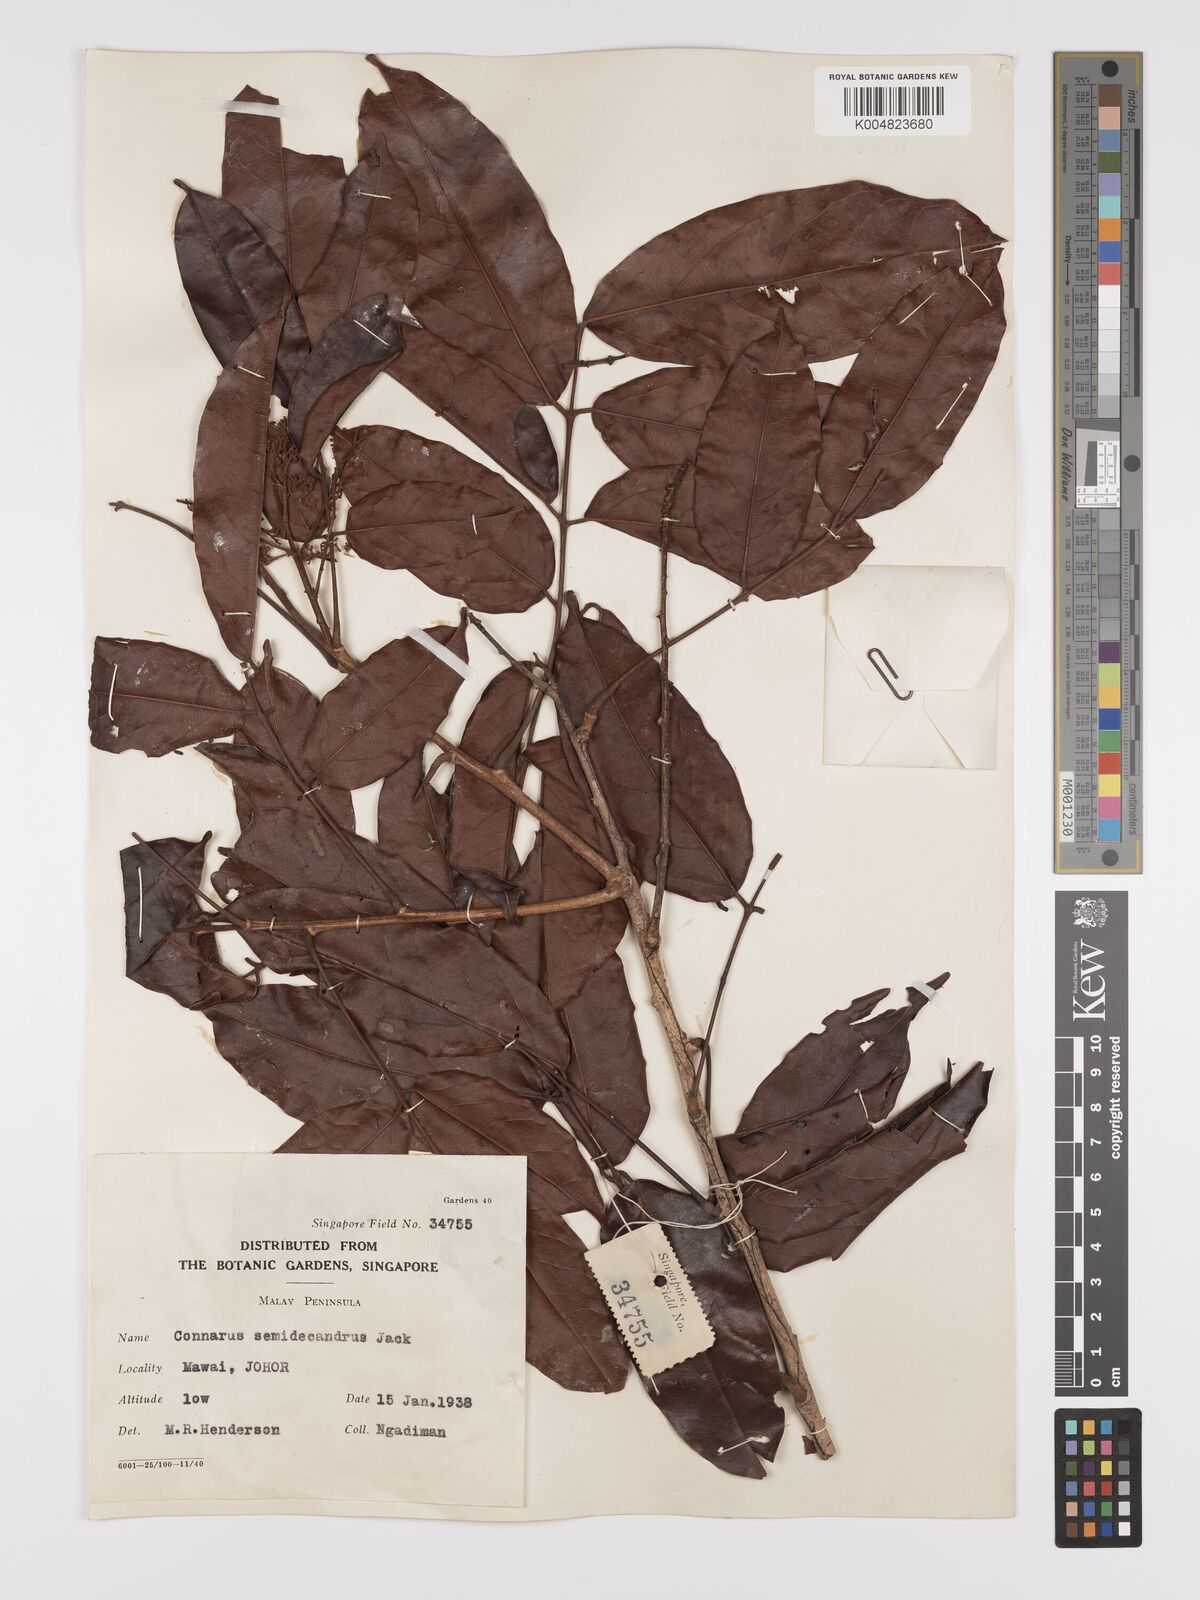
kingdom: Plantae
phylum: Tracheophyta
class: Magnoliopsida
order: Oxalidales
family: Connaraceae
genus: Connarus
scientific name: Connarus semidecandrus
